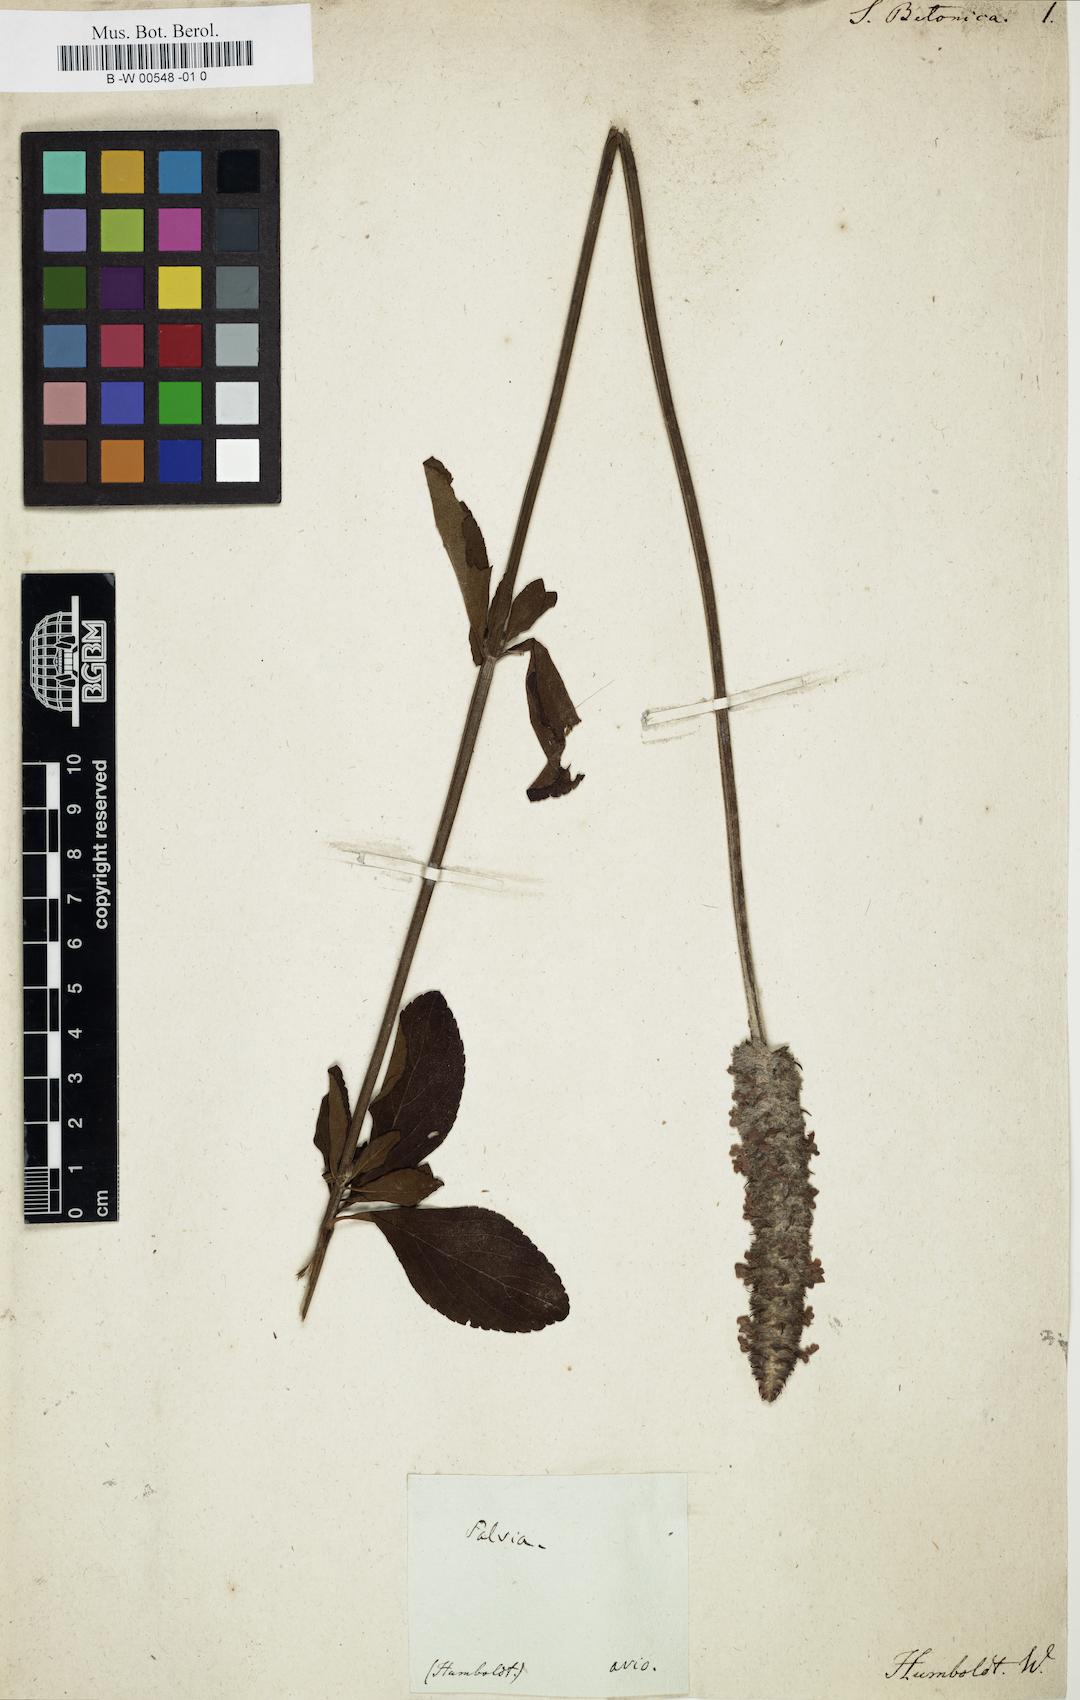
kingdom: Plantae
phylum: Tracheophyta
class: Magnoliopsida
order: Lamiales
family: Lamiaceae
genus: Salvia
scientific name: Salvia stachyoides
